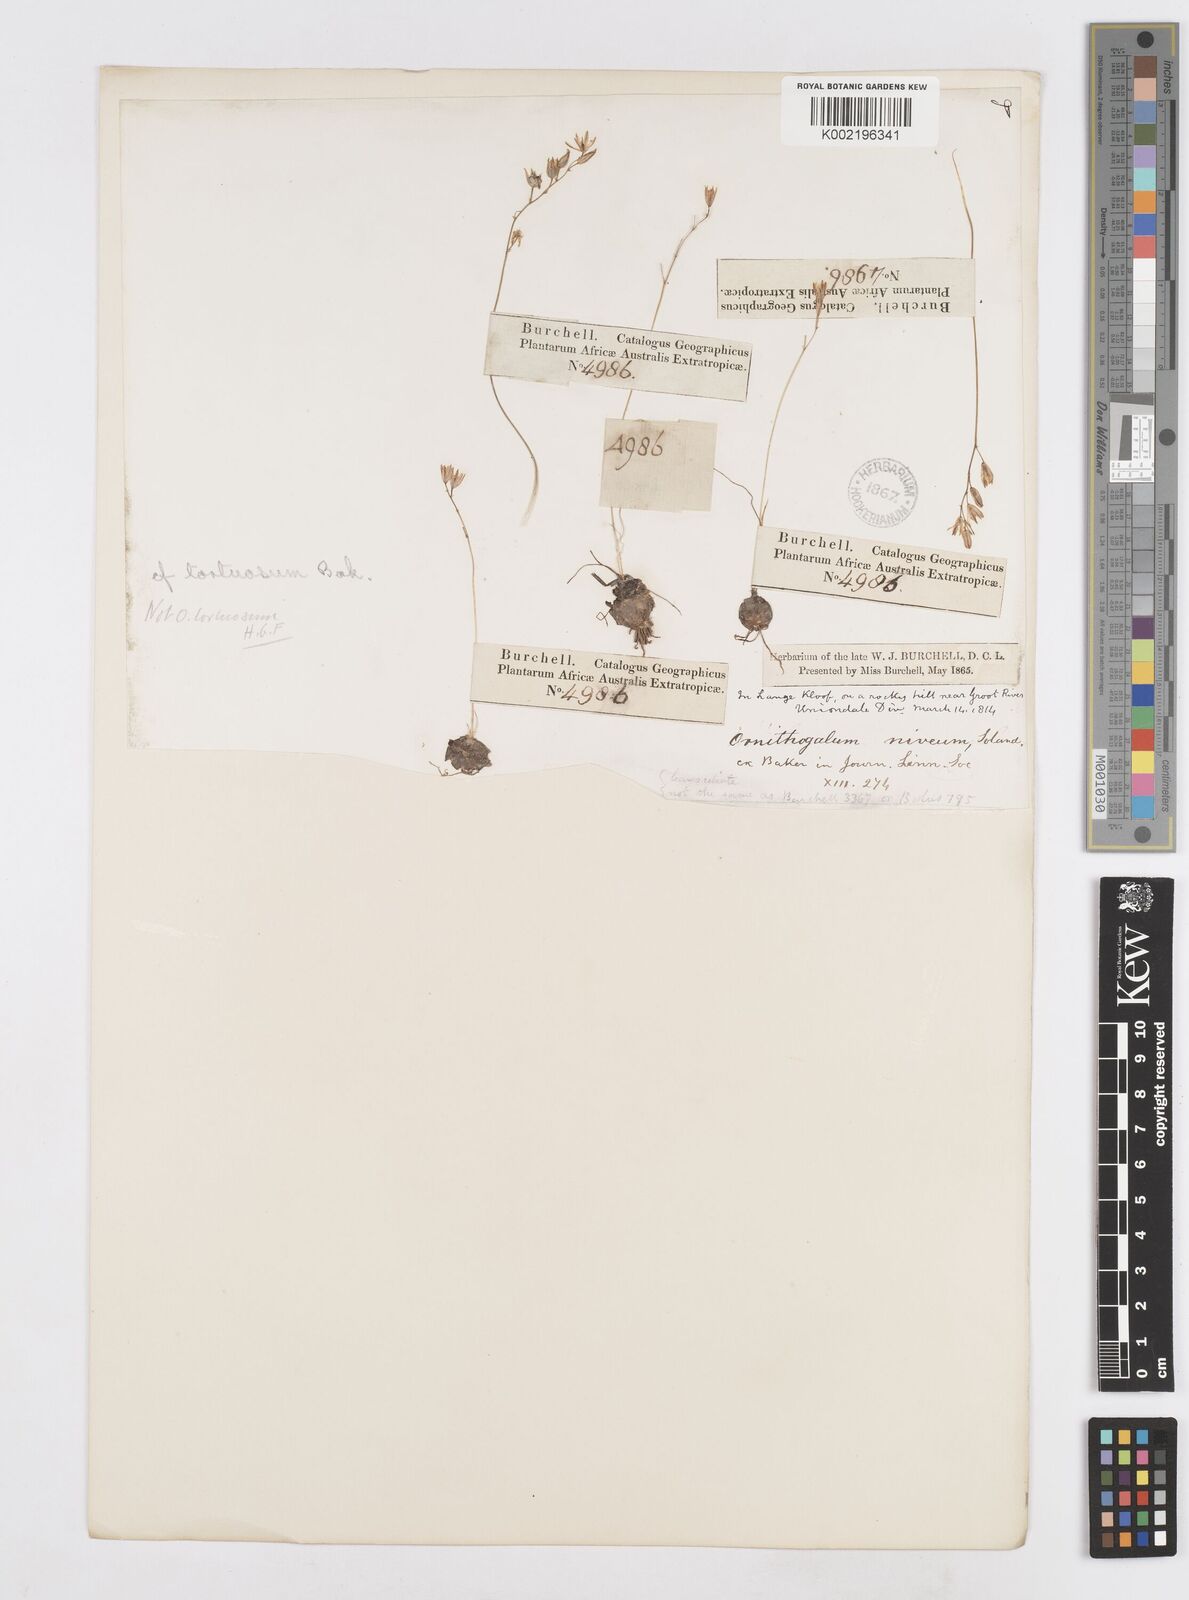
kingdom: Plantae
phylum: Tracheophyta
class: Liliopsida
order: Asparagales
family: Asparagaceae
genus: Ornithogalum
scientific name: Ornithogalum juncifolium
